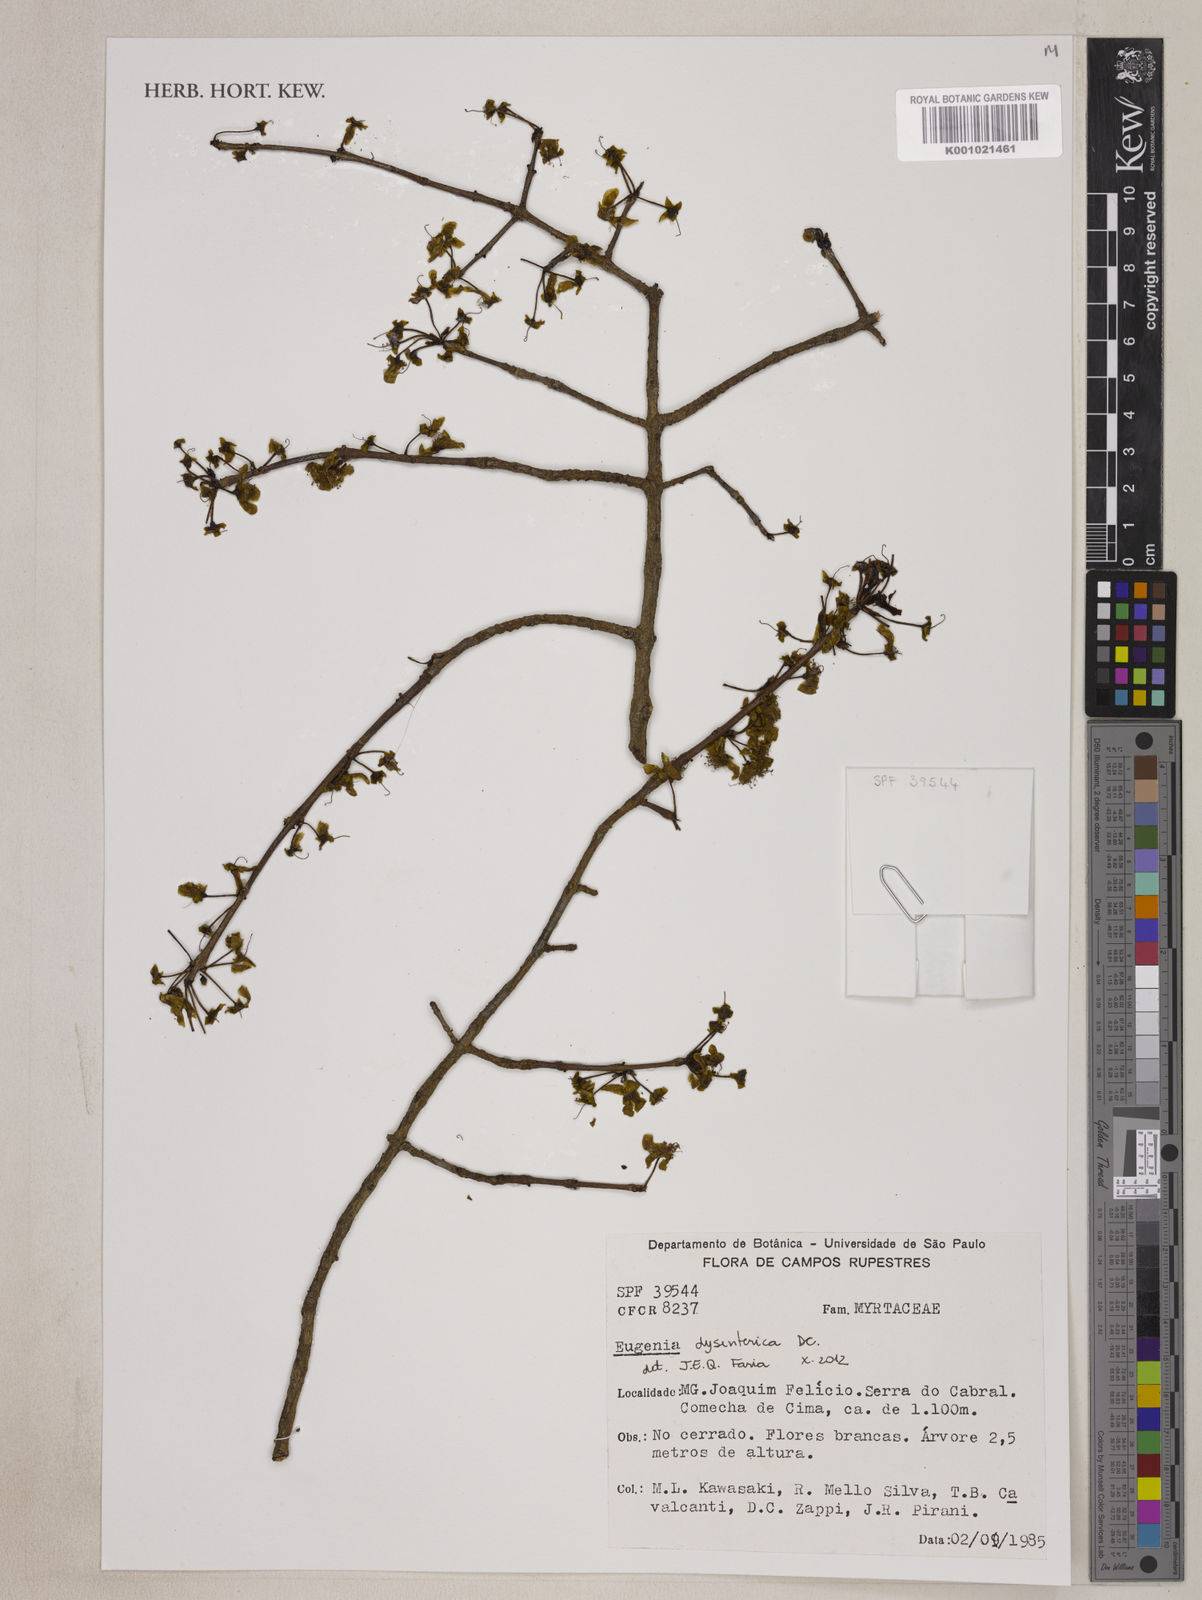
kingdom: Plantae
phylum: Tracheophyta
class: Magnoliopsida
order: Myrtales
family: Myrtaceae
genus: Eugenia
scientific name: Eugenia dysenterica
